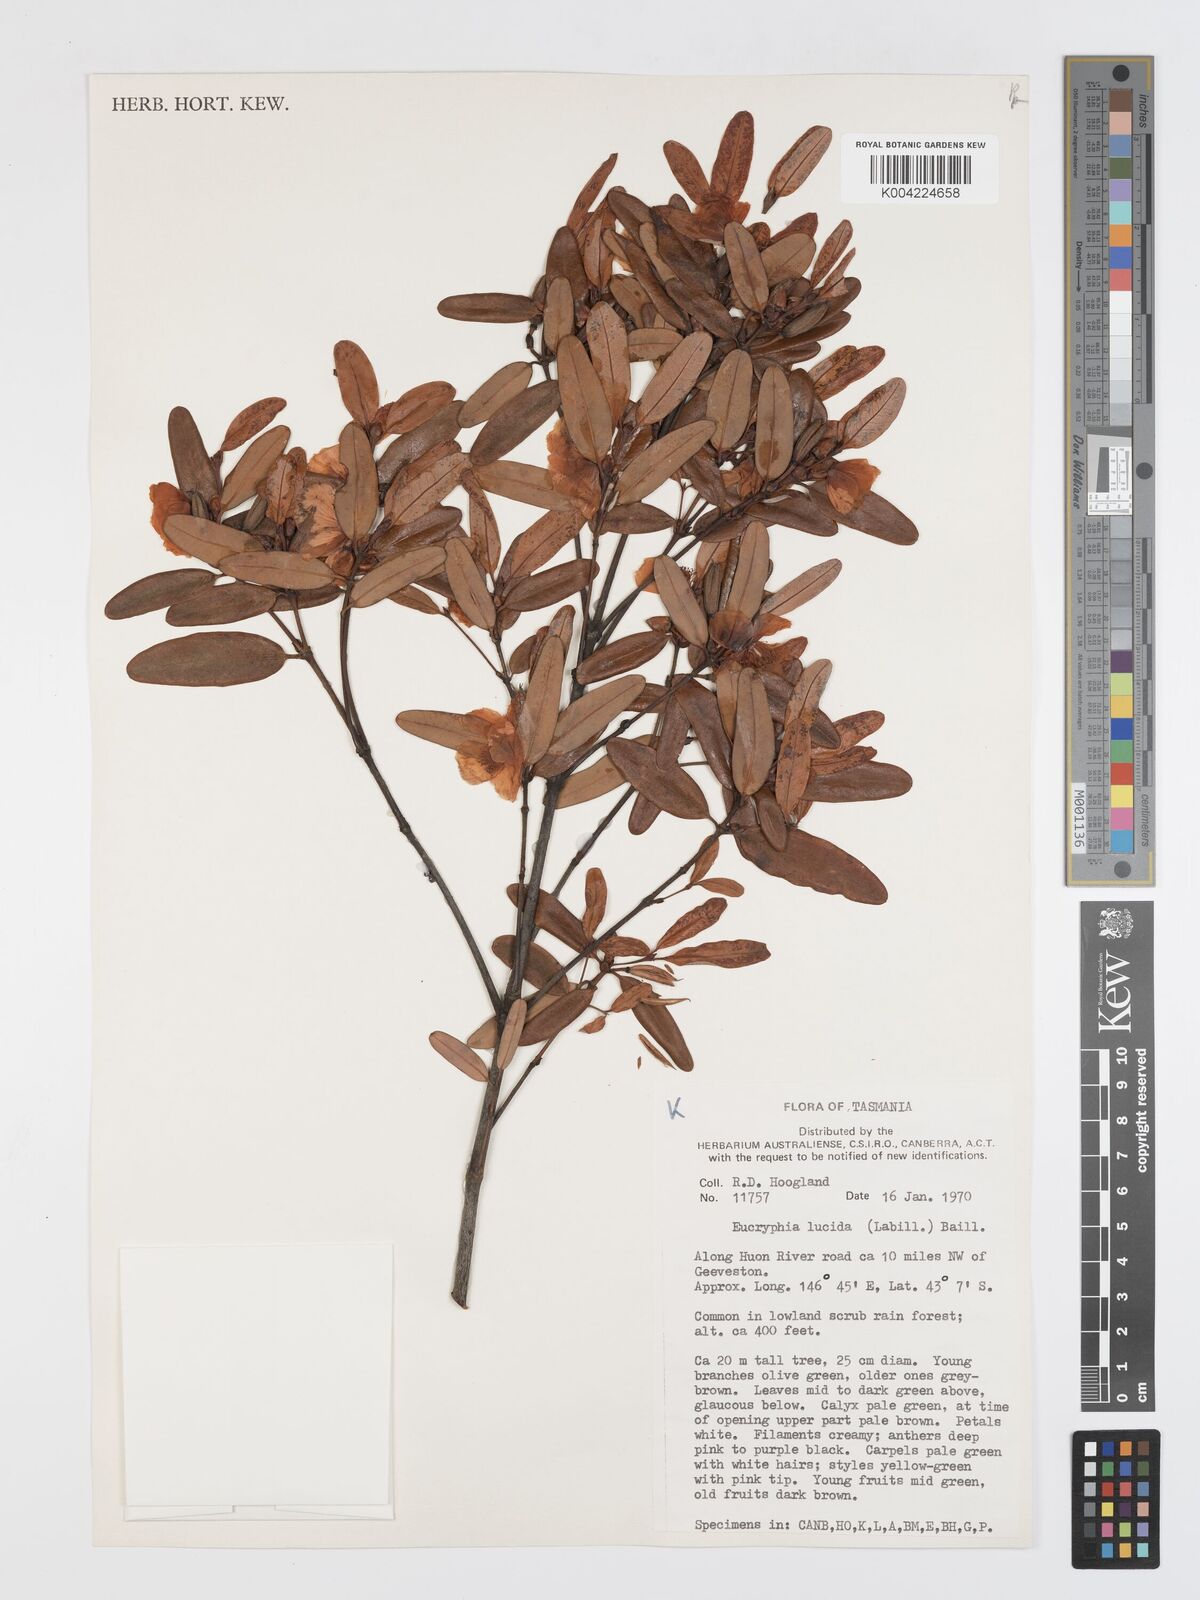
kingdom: Plantae
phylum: Tracheophyta
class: Magnoliopsida
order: Oxalidales
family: Cunoniaceae
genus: Eucryphia
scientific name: Eucryphia lucida
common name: Leatherwood
